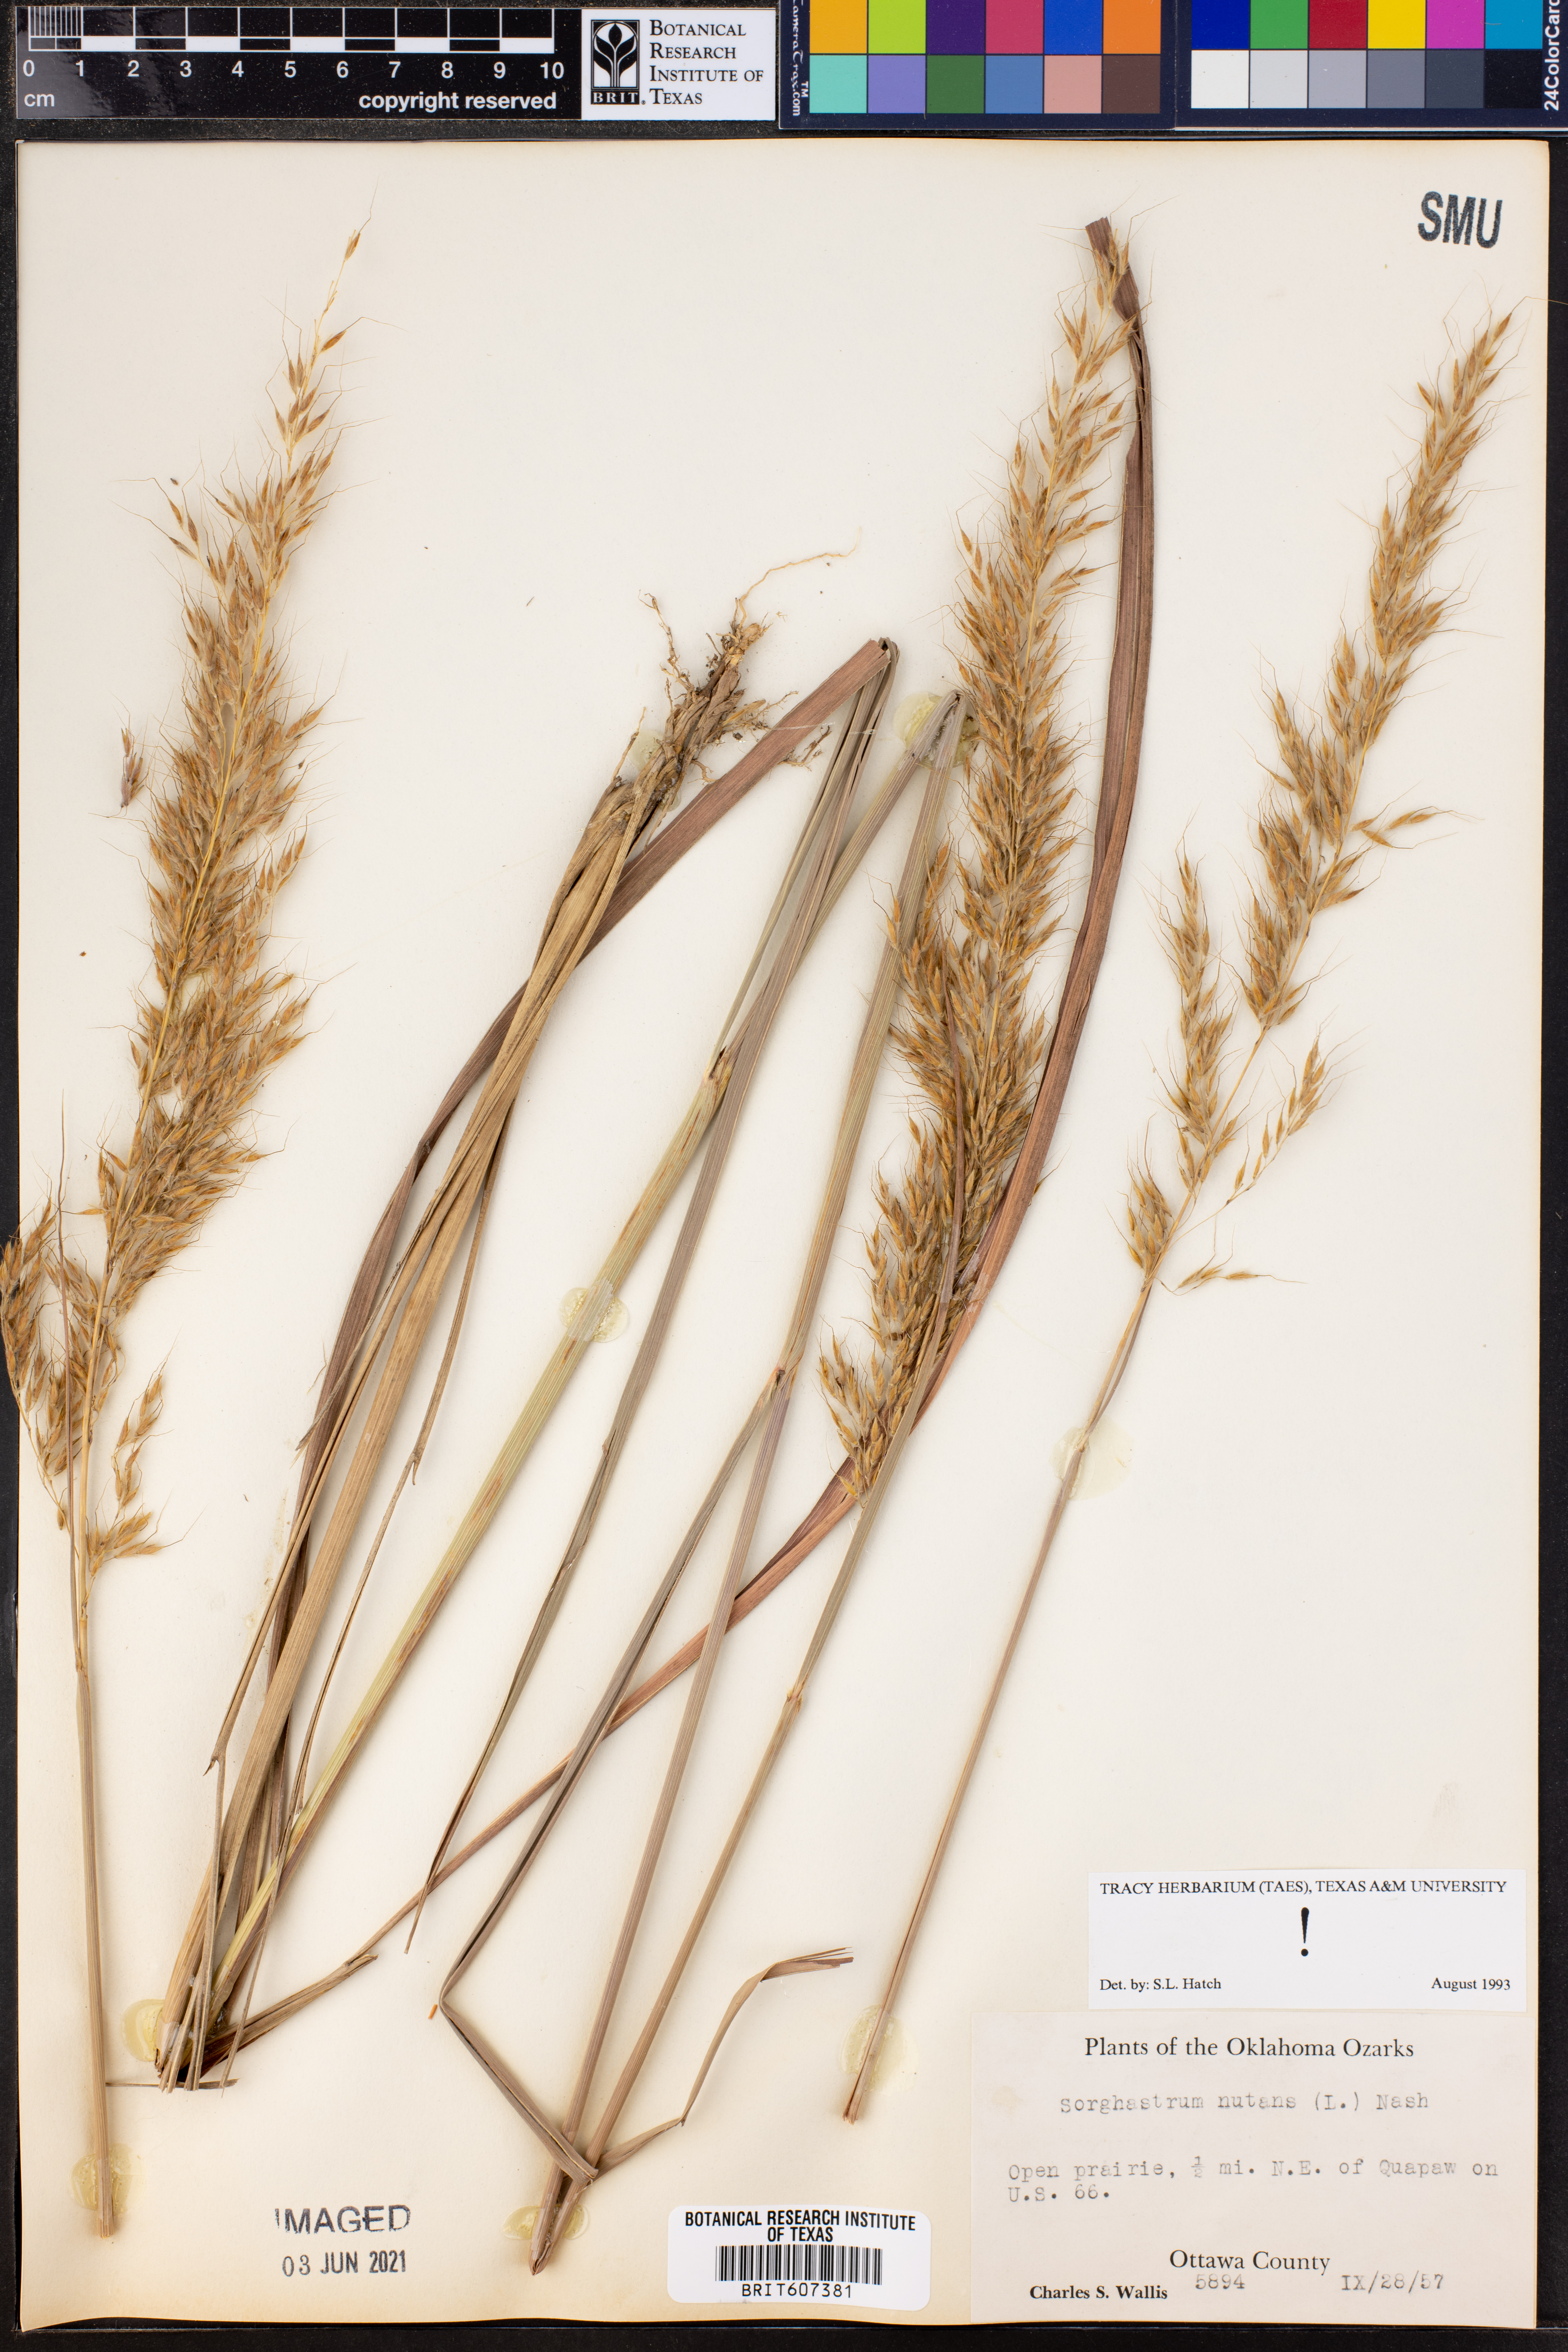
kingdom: Plantae
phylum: Tracheophyta
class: Liliopsida
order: Poales
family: Poaceae
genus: Sorghastrum
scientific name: Sorghastrum nutans
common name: Indian grass
